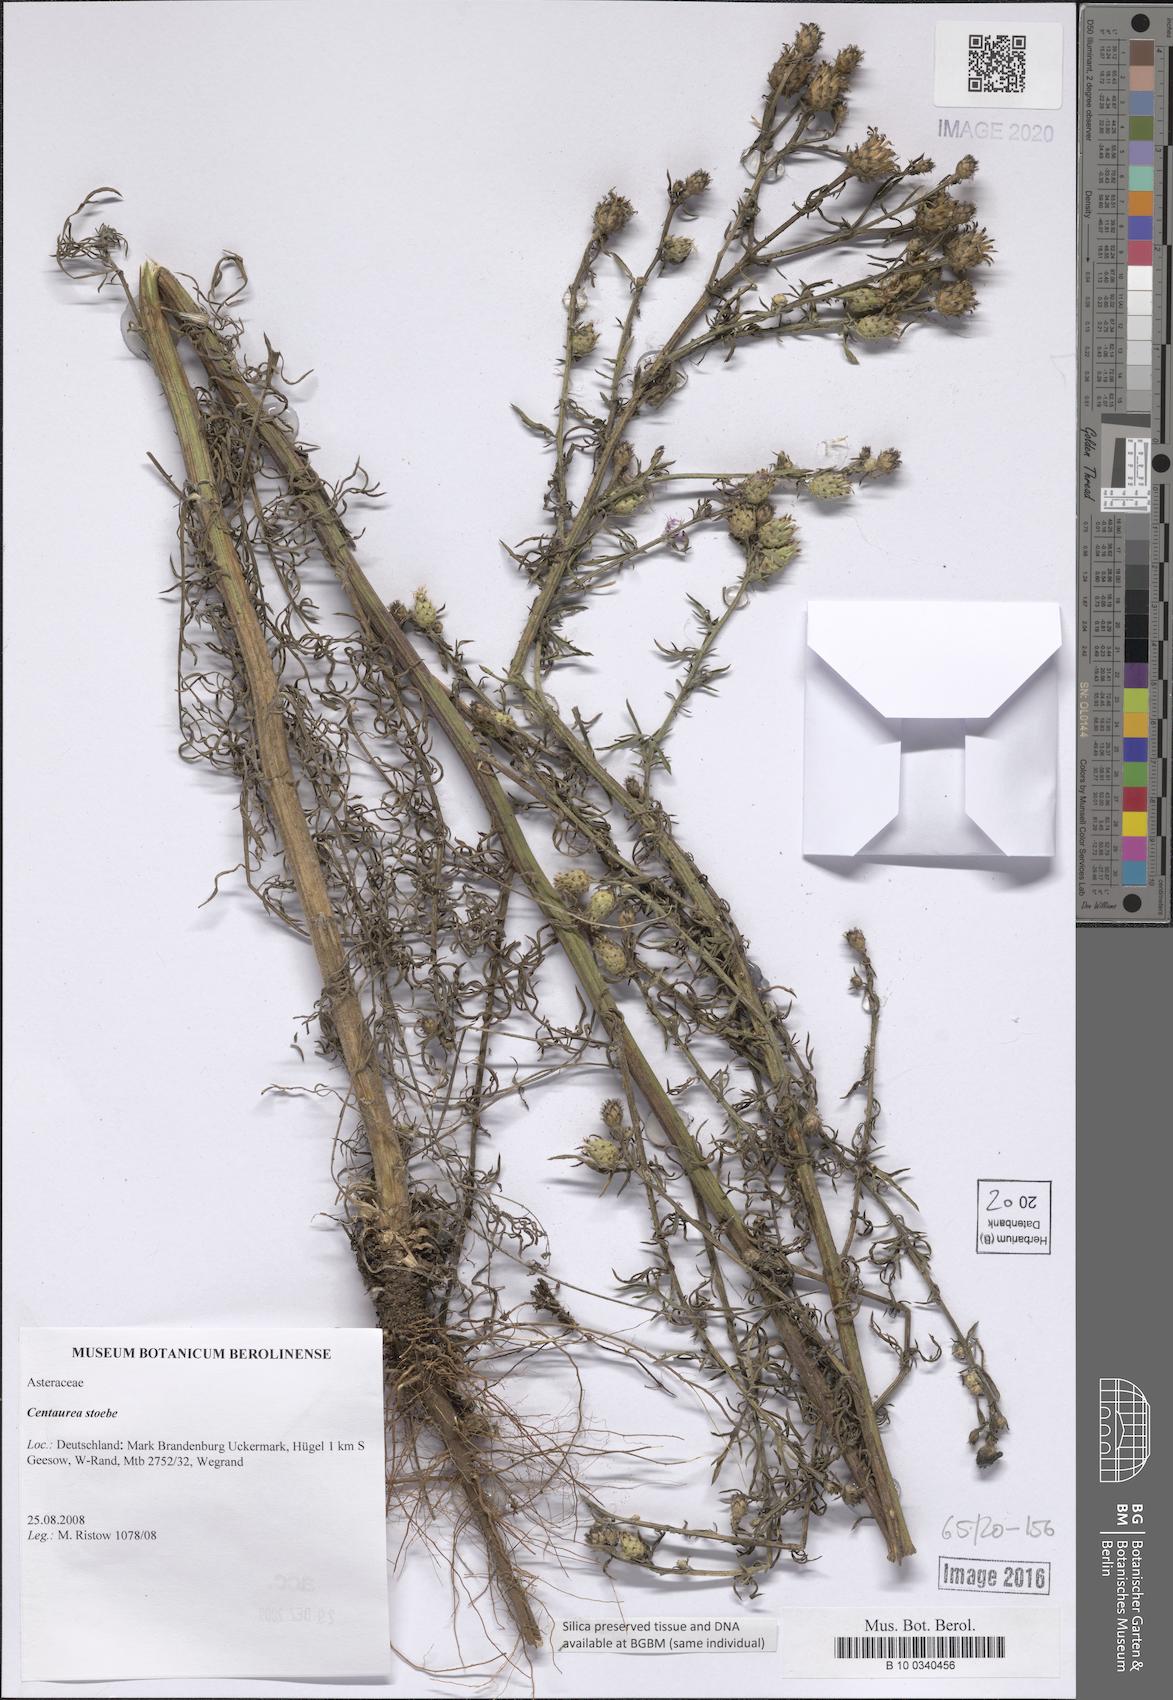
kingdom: Plantae
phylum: Tracheophyta
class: Magnoliopsida
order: Asterales
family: Asteraceae
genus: Centaurea
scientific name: Centaurea stoebe
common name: Spotted knapweed
